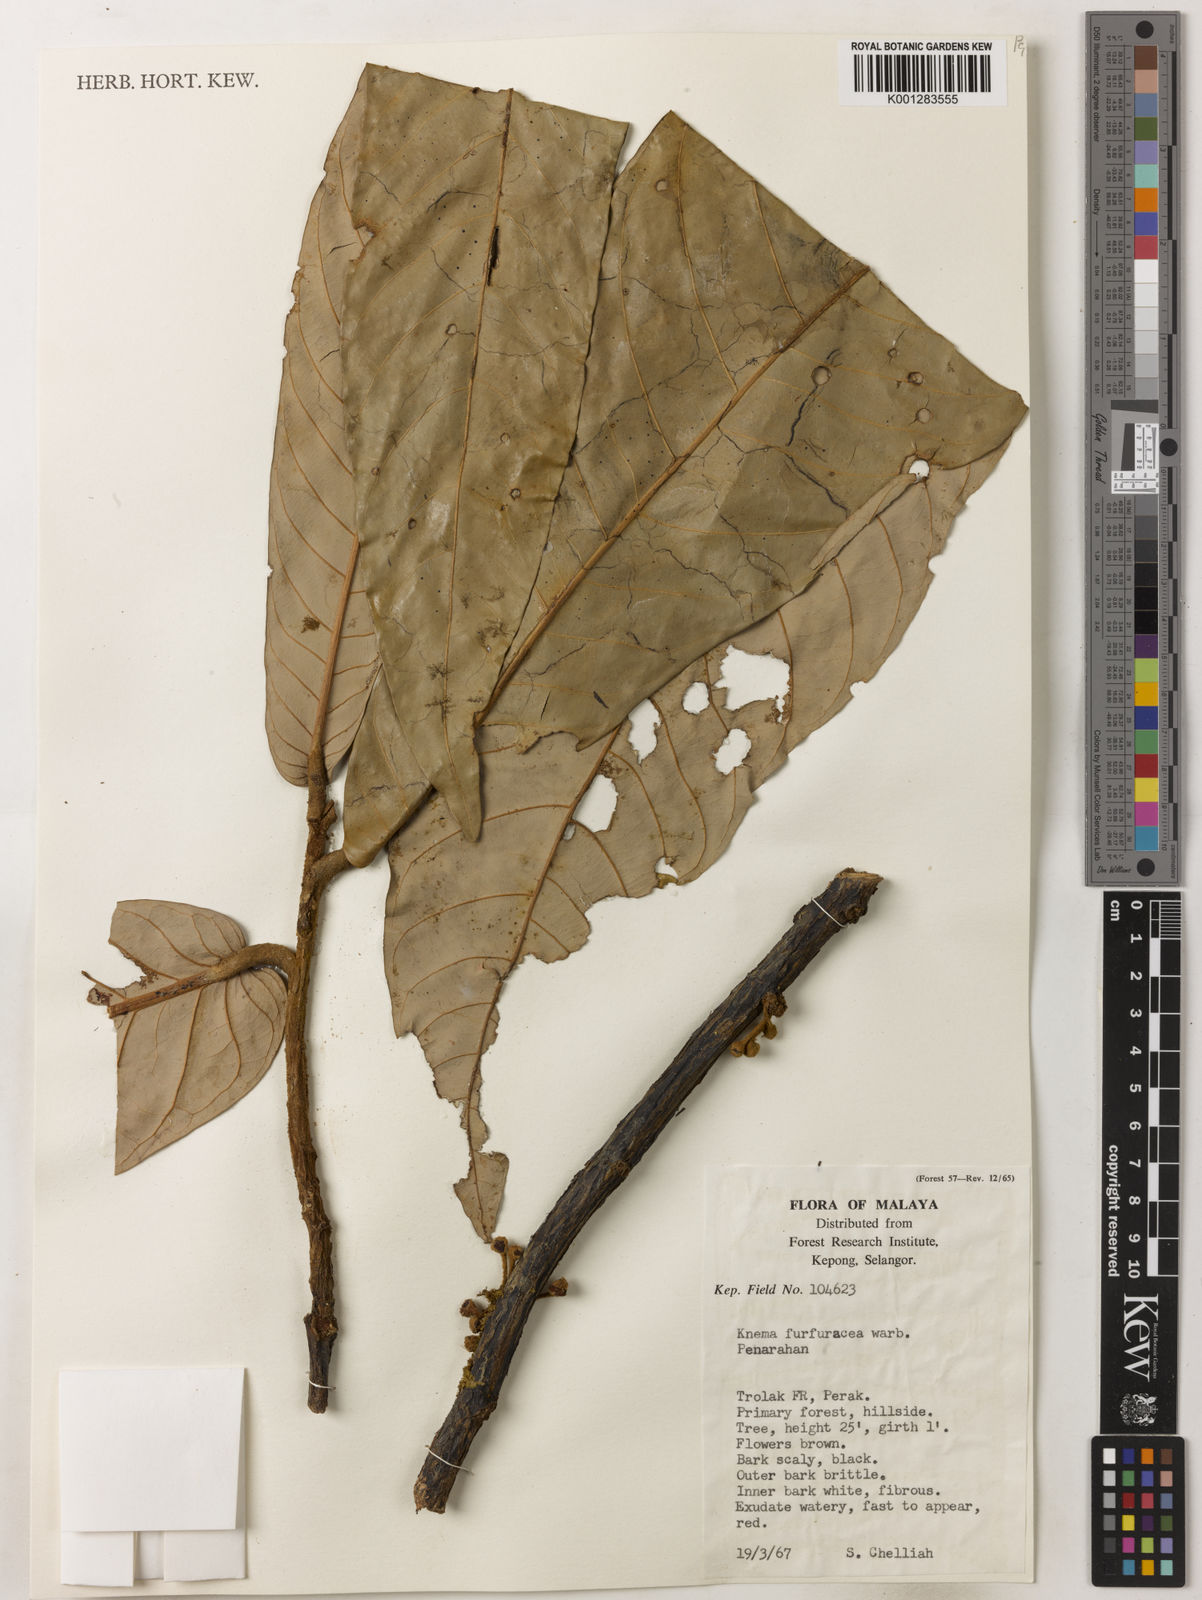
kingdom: Plantae
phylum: Tracheophyta
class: Magnoliopsida
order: Magnoliales
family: Myristicaceae
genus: Knema
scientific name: Knema furfuracea
